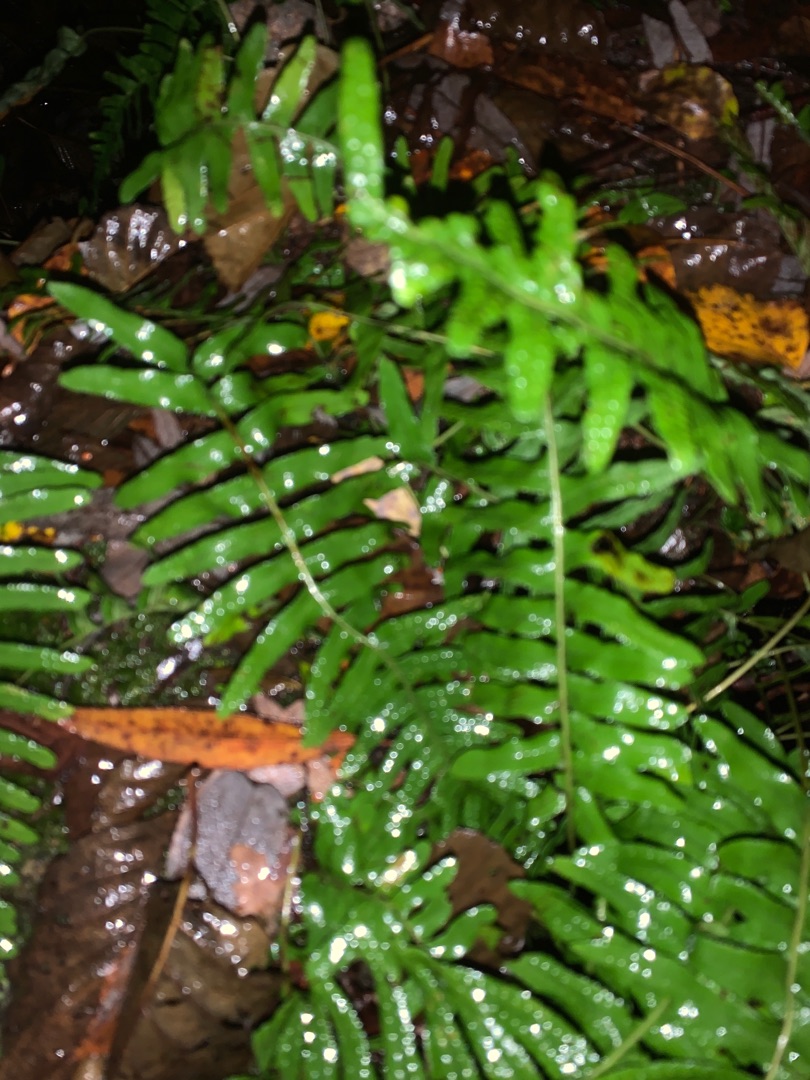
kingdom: Plantae
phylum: Tracheophyta
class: Polypodiopsida
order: Polypodiales
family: Polypodiaceae
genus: Polypodium
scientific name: Polypodium vulgare
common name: Almindelig engelsød
